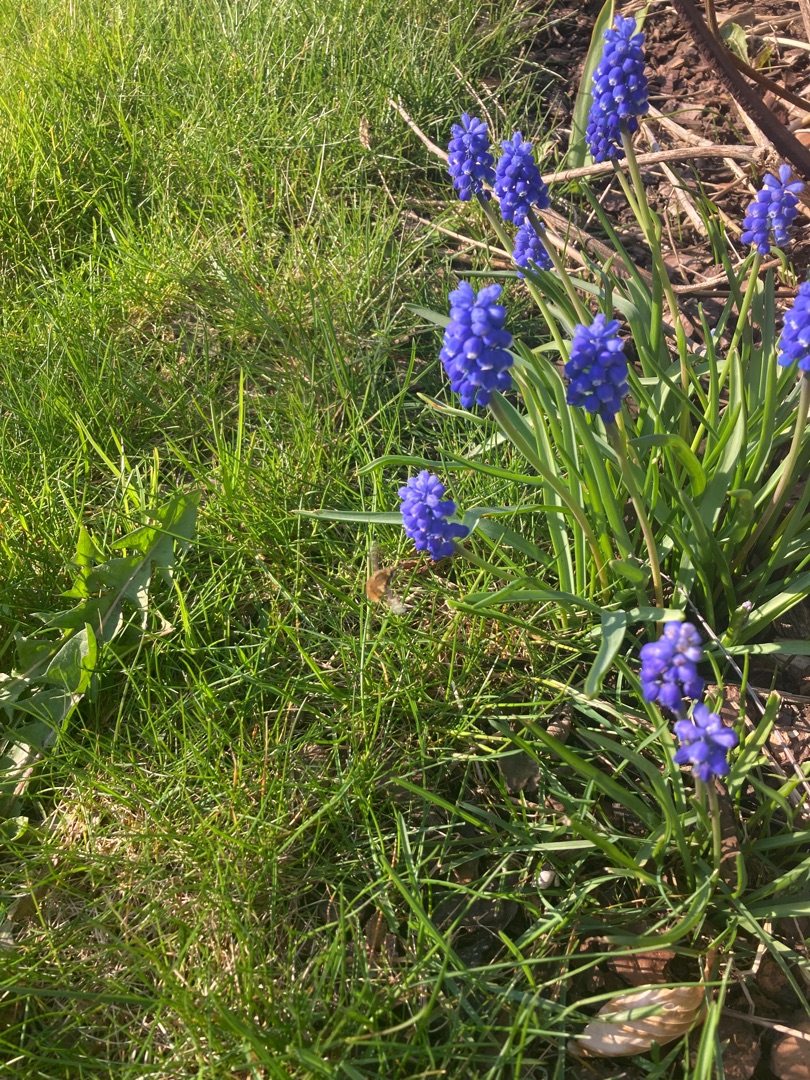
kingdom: Animalia
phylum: Arthropoda
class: Insecta
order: Diptera
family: Bombyliidae
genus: Bombylius
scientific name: Bombylius major
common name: Stor humleflue
